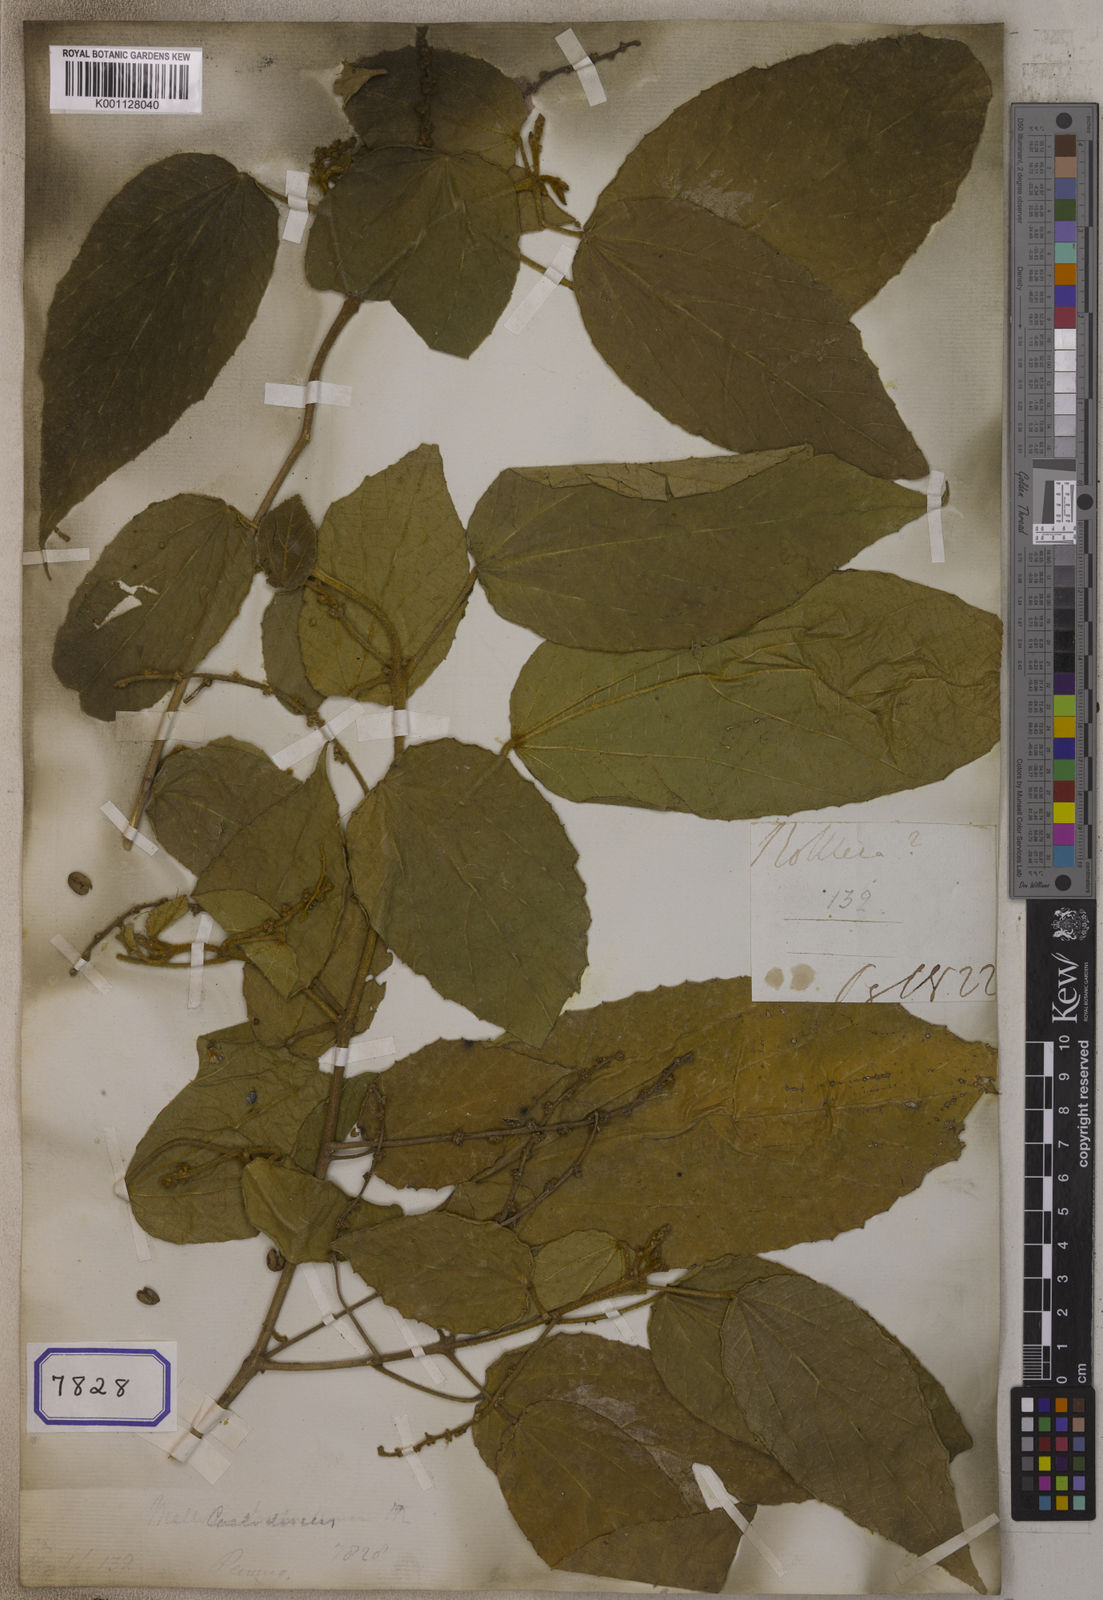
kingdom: Plantae
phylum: Tracheophyta
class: Magnoliopsida
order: Malpighiales
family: Euphorbiaceae
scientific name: Euphorbiaceae
